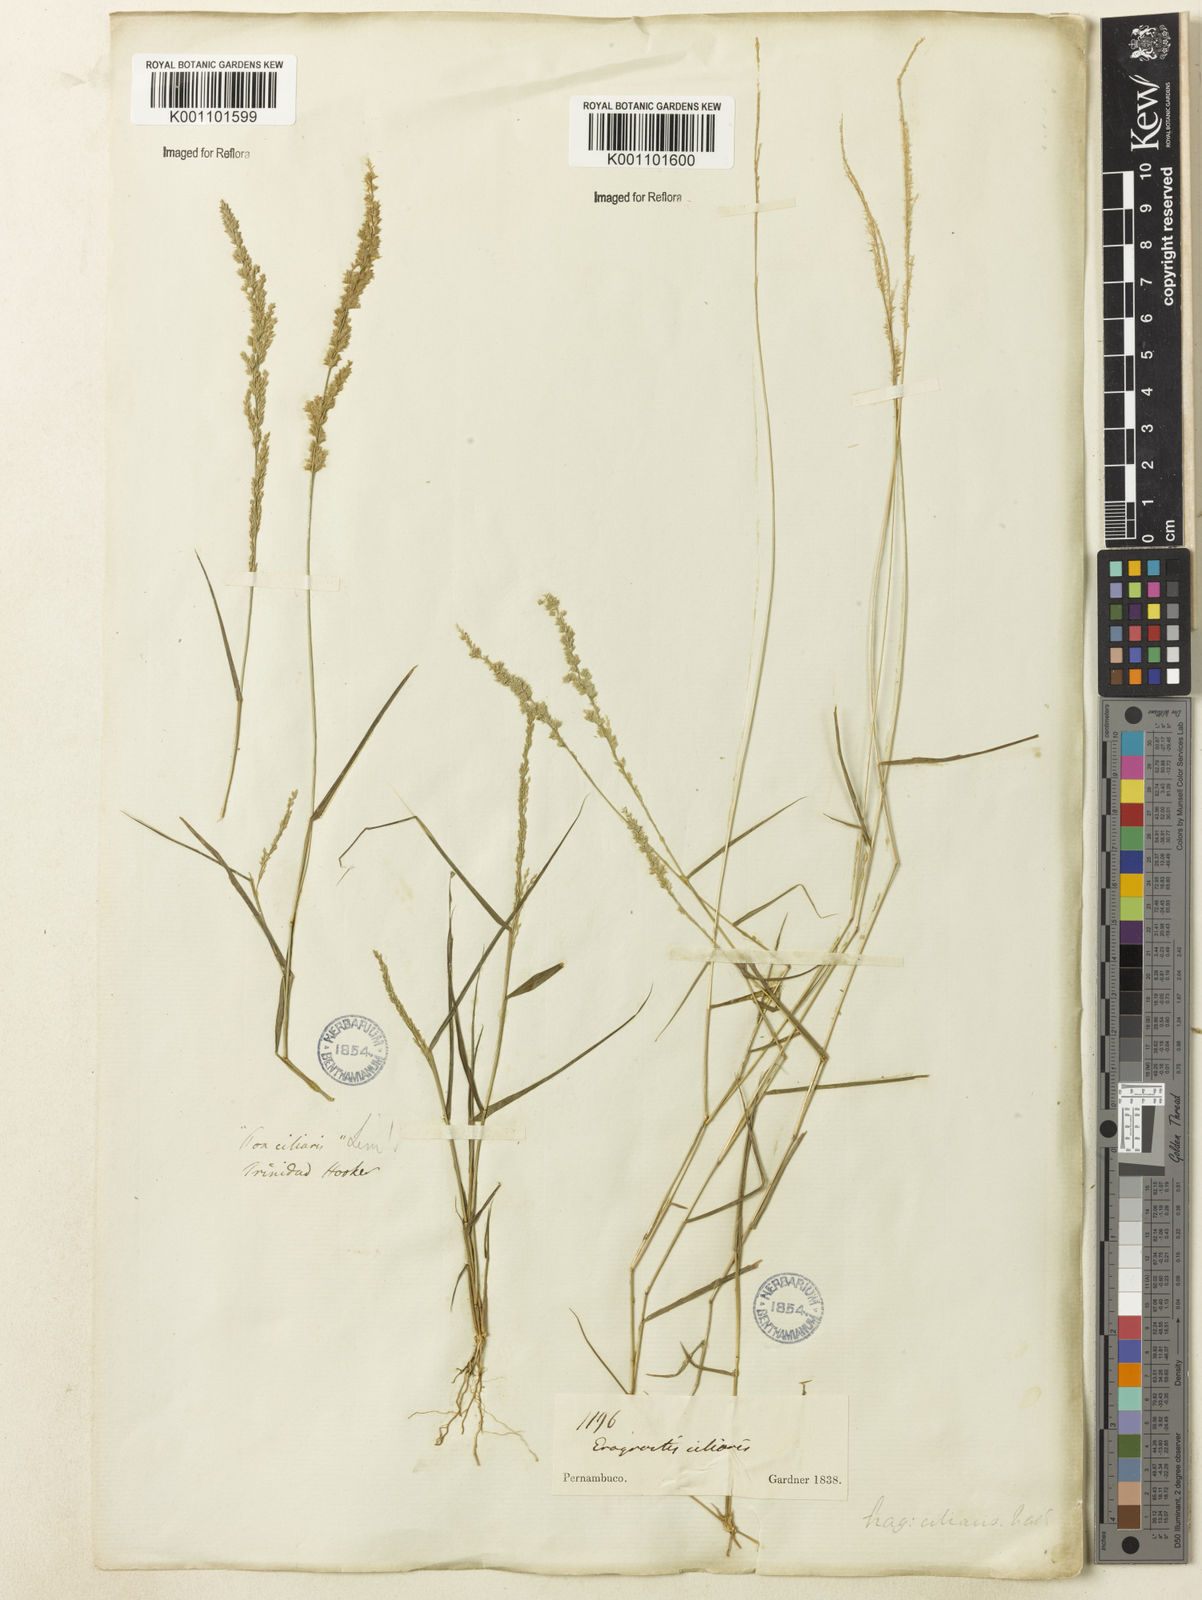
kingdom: Plantae
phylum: Tracheophyta
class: Liliopsida
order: Poales
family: Poaceae
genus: Eragrostis
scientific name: Eragrostis ciliaris
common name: Gophertail lovegrass
